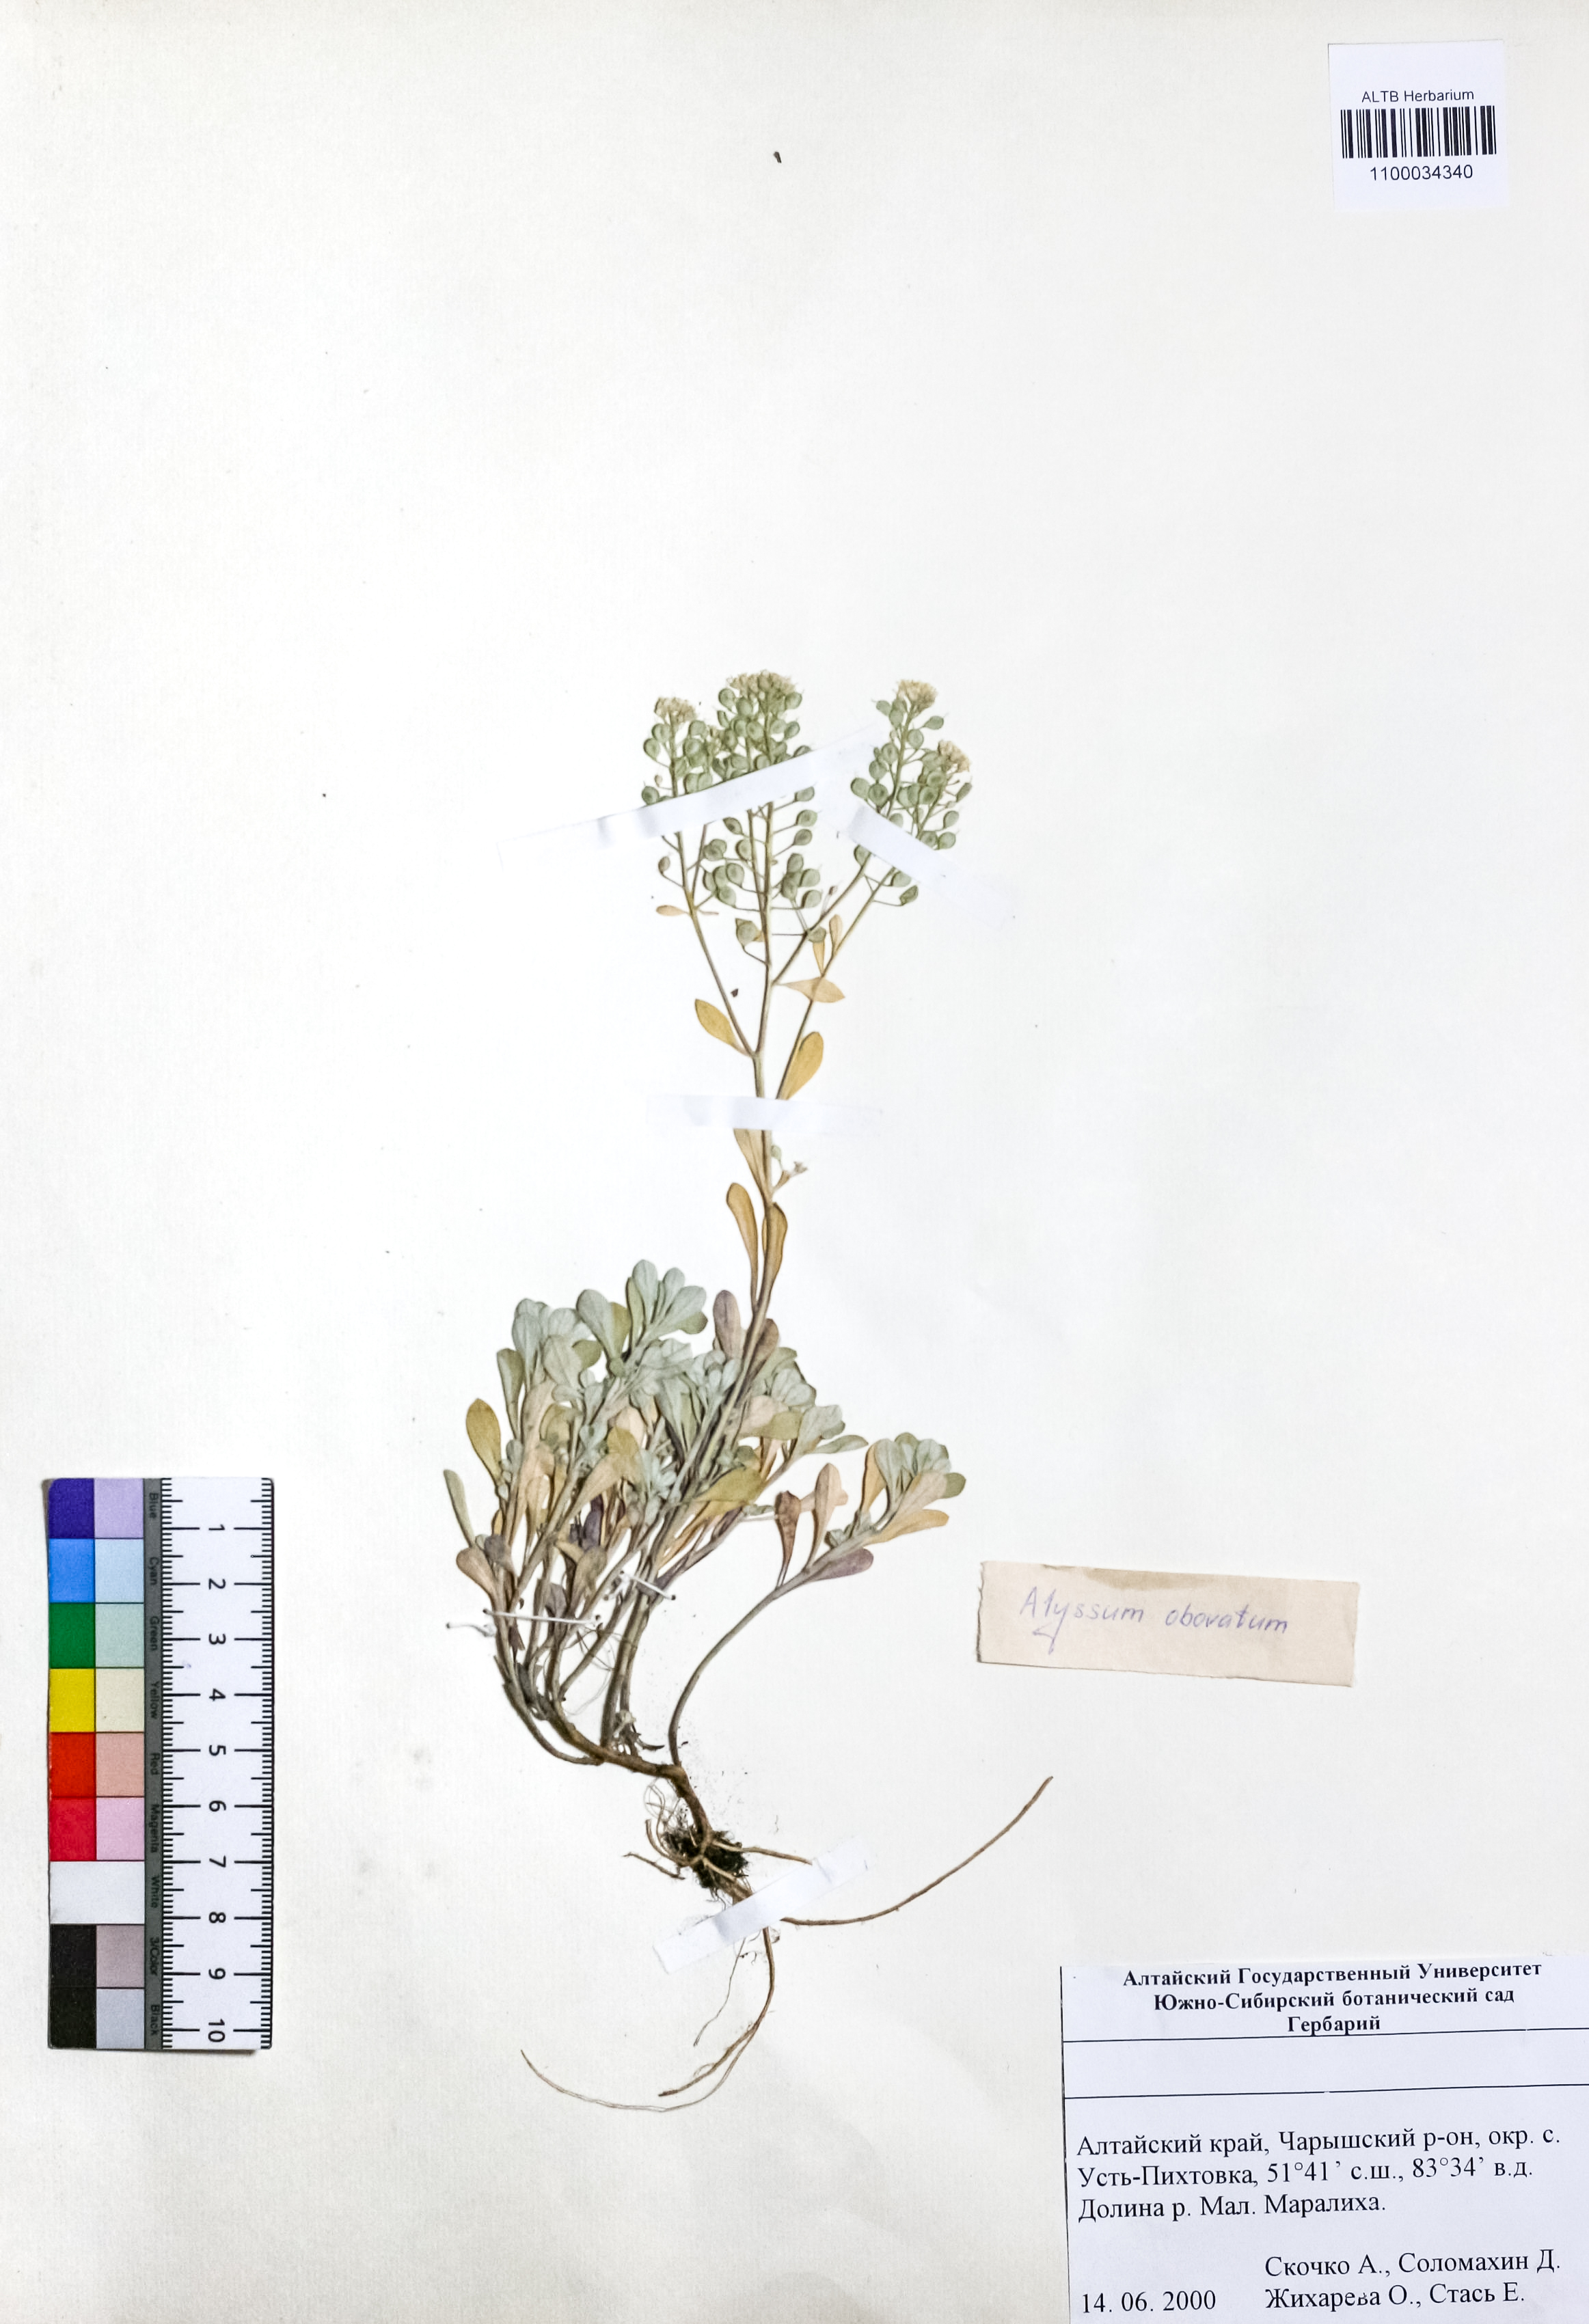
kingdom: Plantae
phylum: Tracheophyta
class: Magnoliopsida
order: Brassicales
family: Brassicaceae
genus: Odontarrhena
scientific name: Odontarrhena obovata
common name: American alyssum
